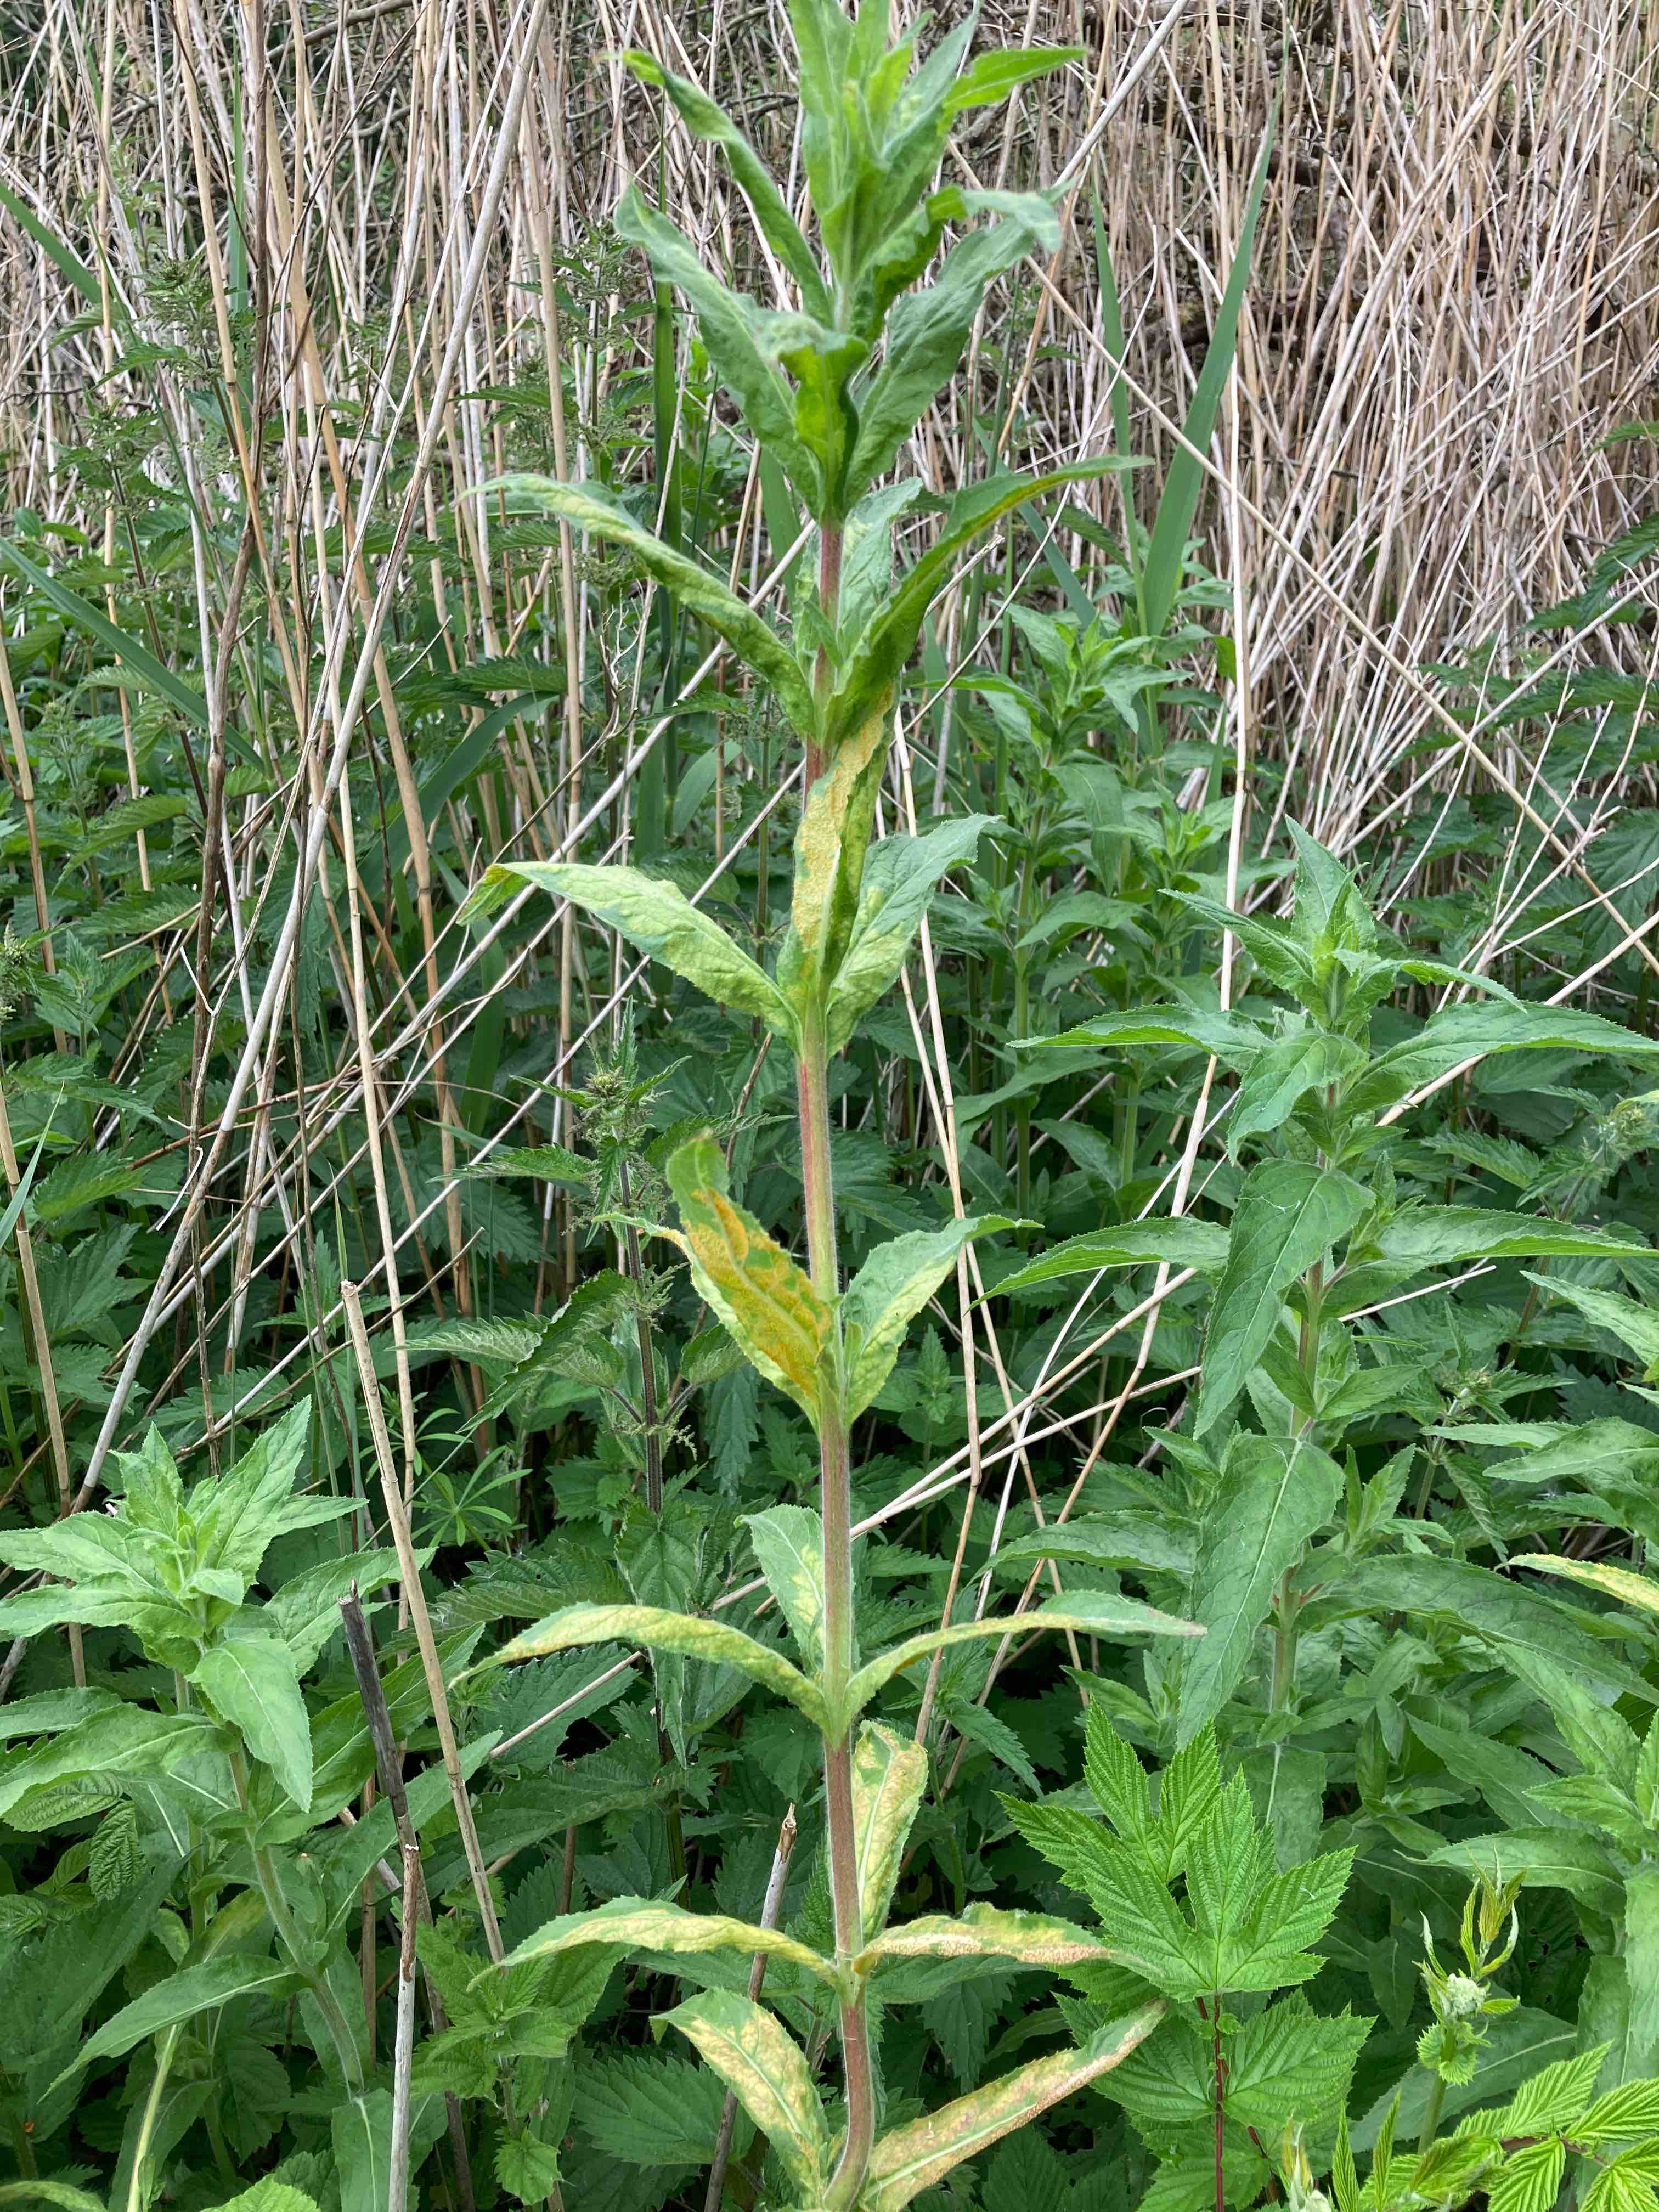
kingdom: Fungi
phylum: Basidiomycota
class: Pucciniomycetes
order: Pucciniales
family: Pucciniaceae
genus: Puccinia
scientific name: Puccinia pulverulenta
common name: dueurt-tvecellerust
